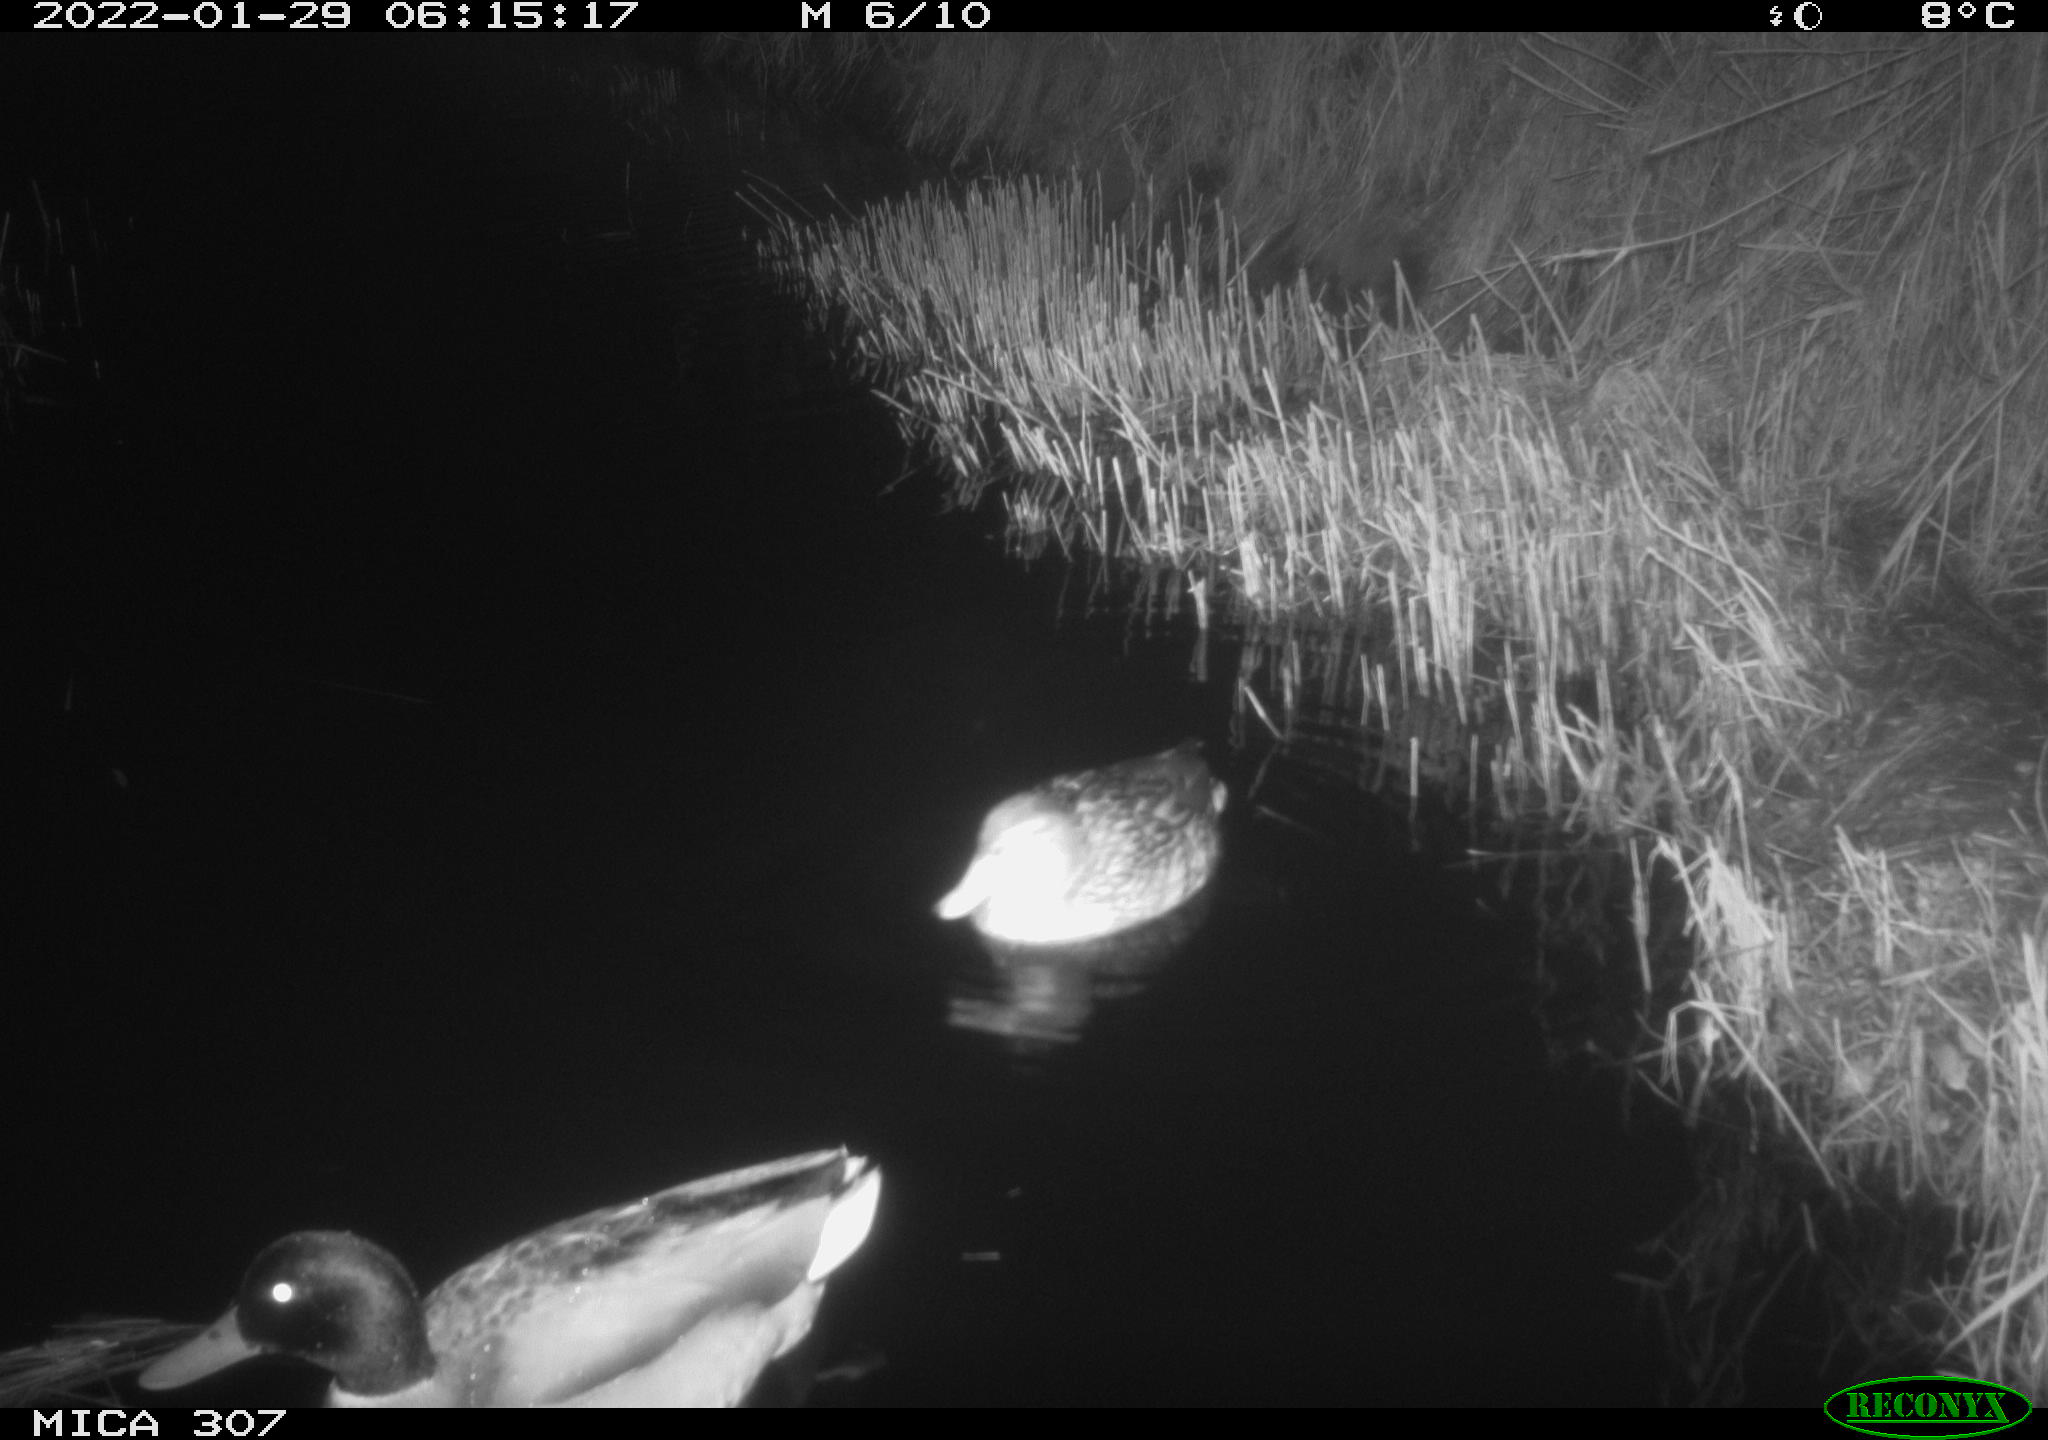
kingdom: Animalia
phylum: Chordata
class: Aves
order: Anseriformes
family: Anatidae
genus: Anas
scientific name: Anas
